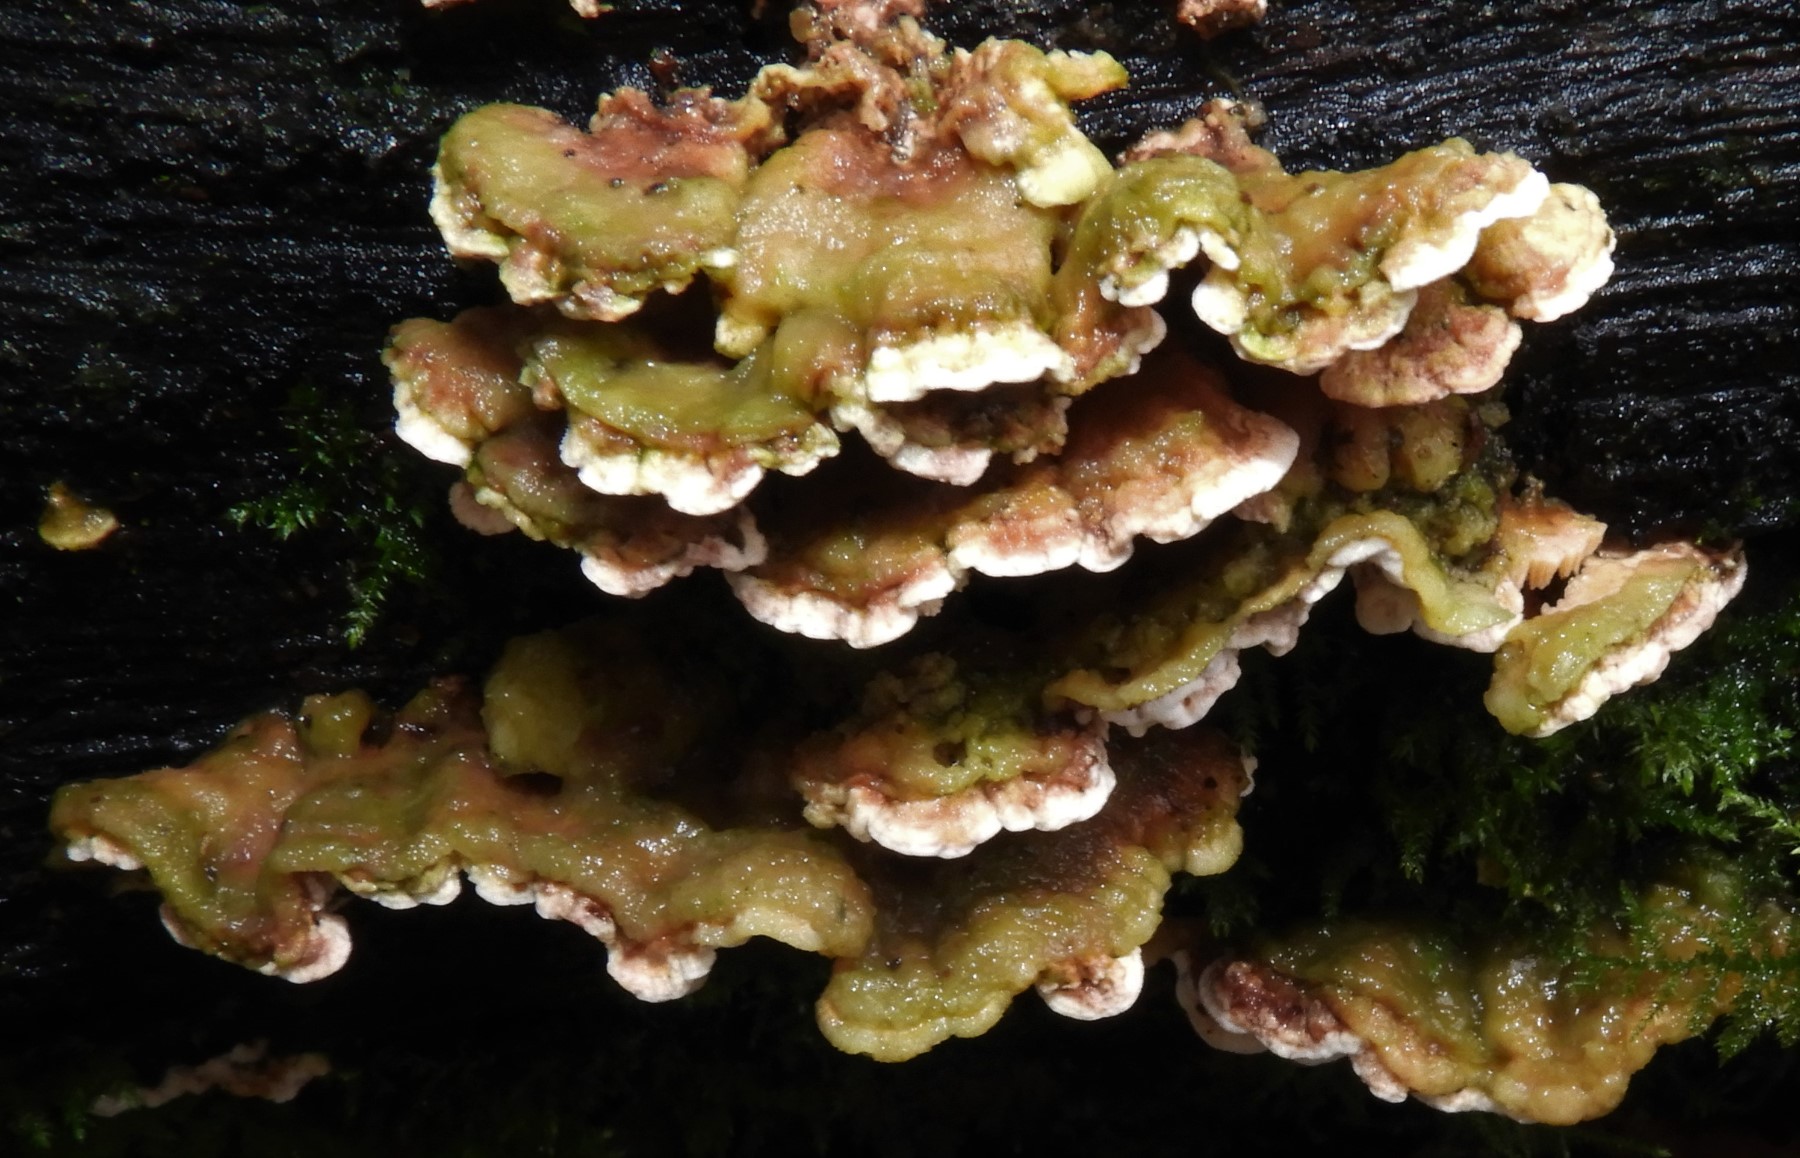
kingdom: Fungi
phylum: Basidiomycota
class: Agaricomycetes
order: Polyporales
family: Steccherinaceae
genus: Steccherinum
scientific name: Steccherinum
